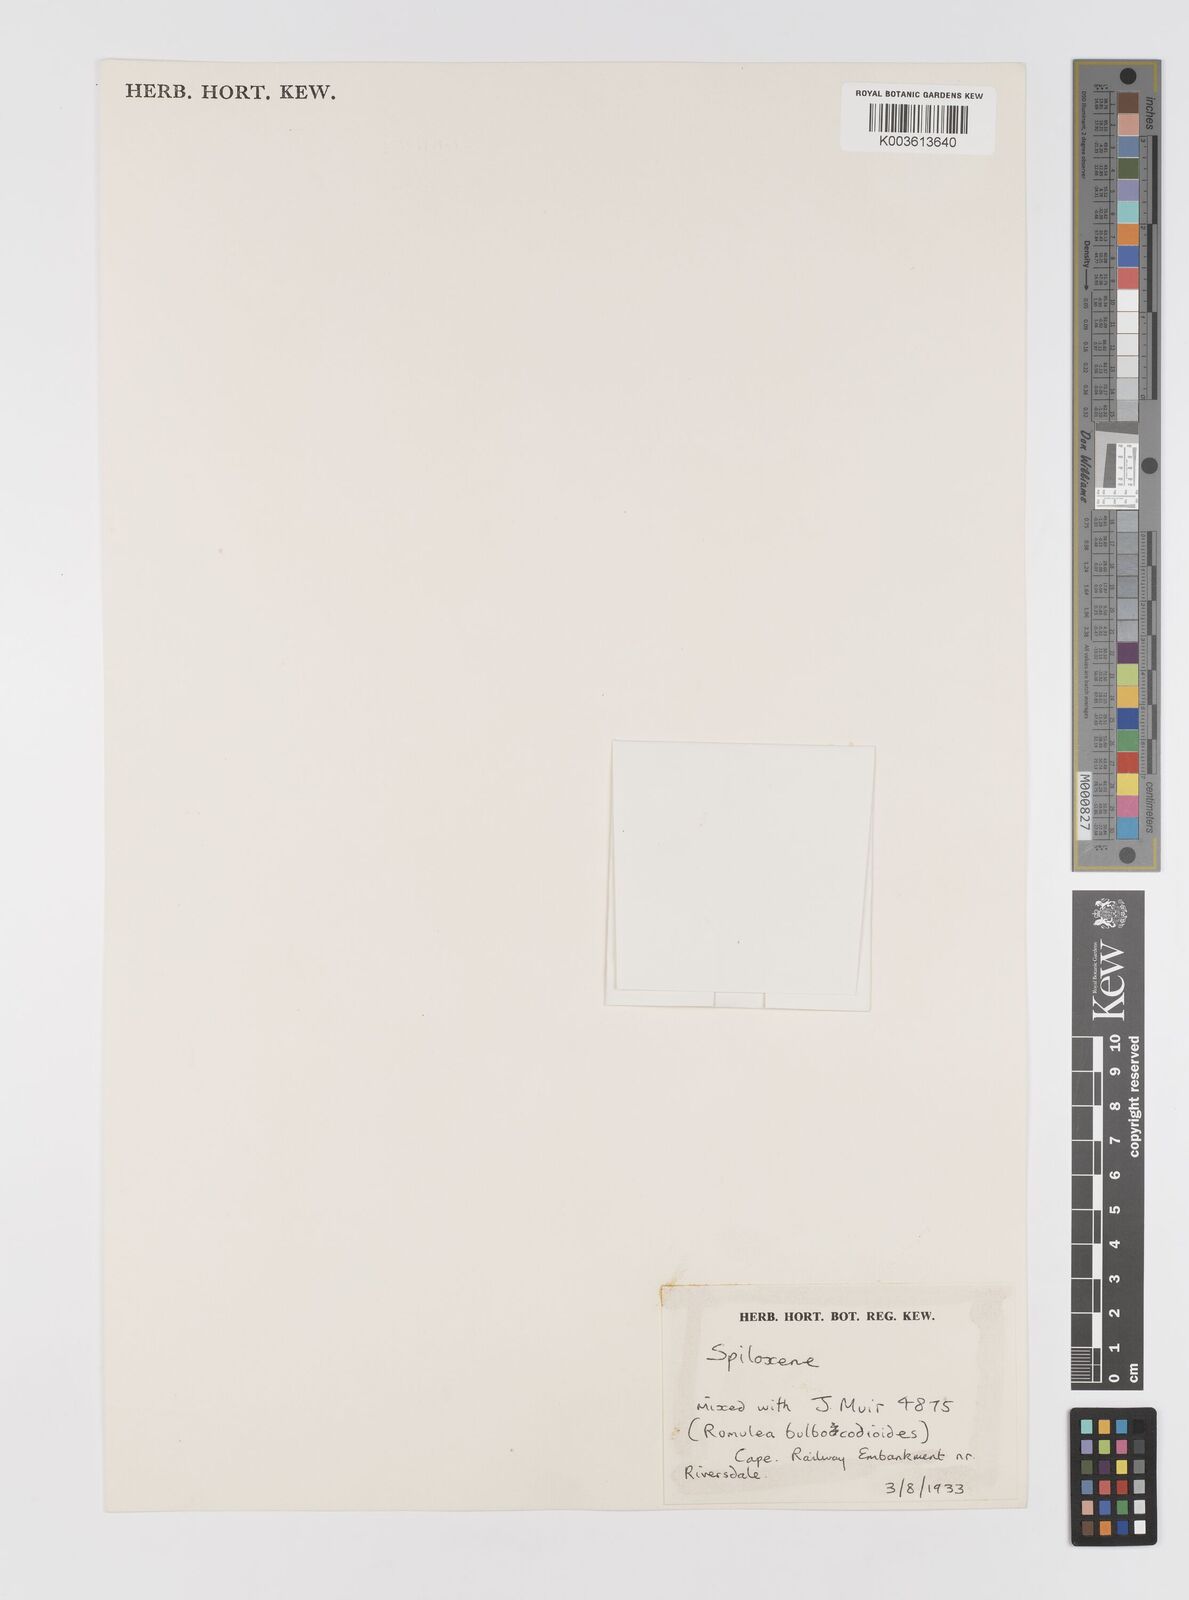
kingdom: Plantae
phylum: Tracheophyta
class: Liliopsida
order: Asparagales
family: Hypoxidaceae
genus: Pauridia
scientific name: Pauridia
